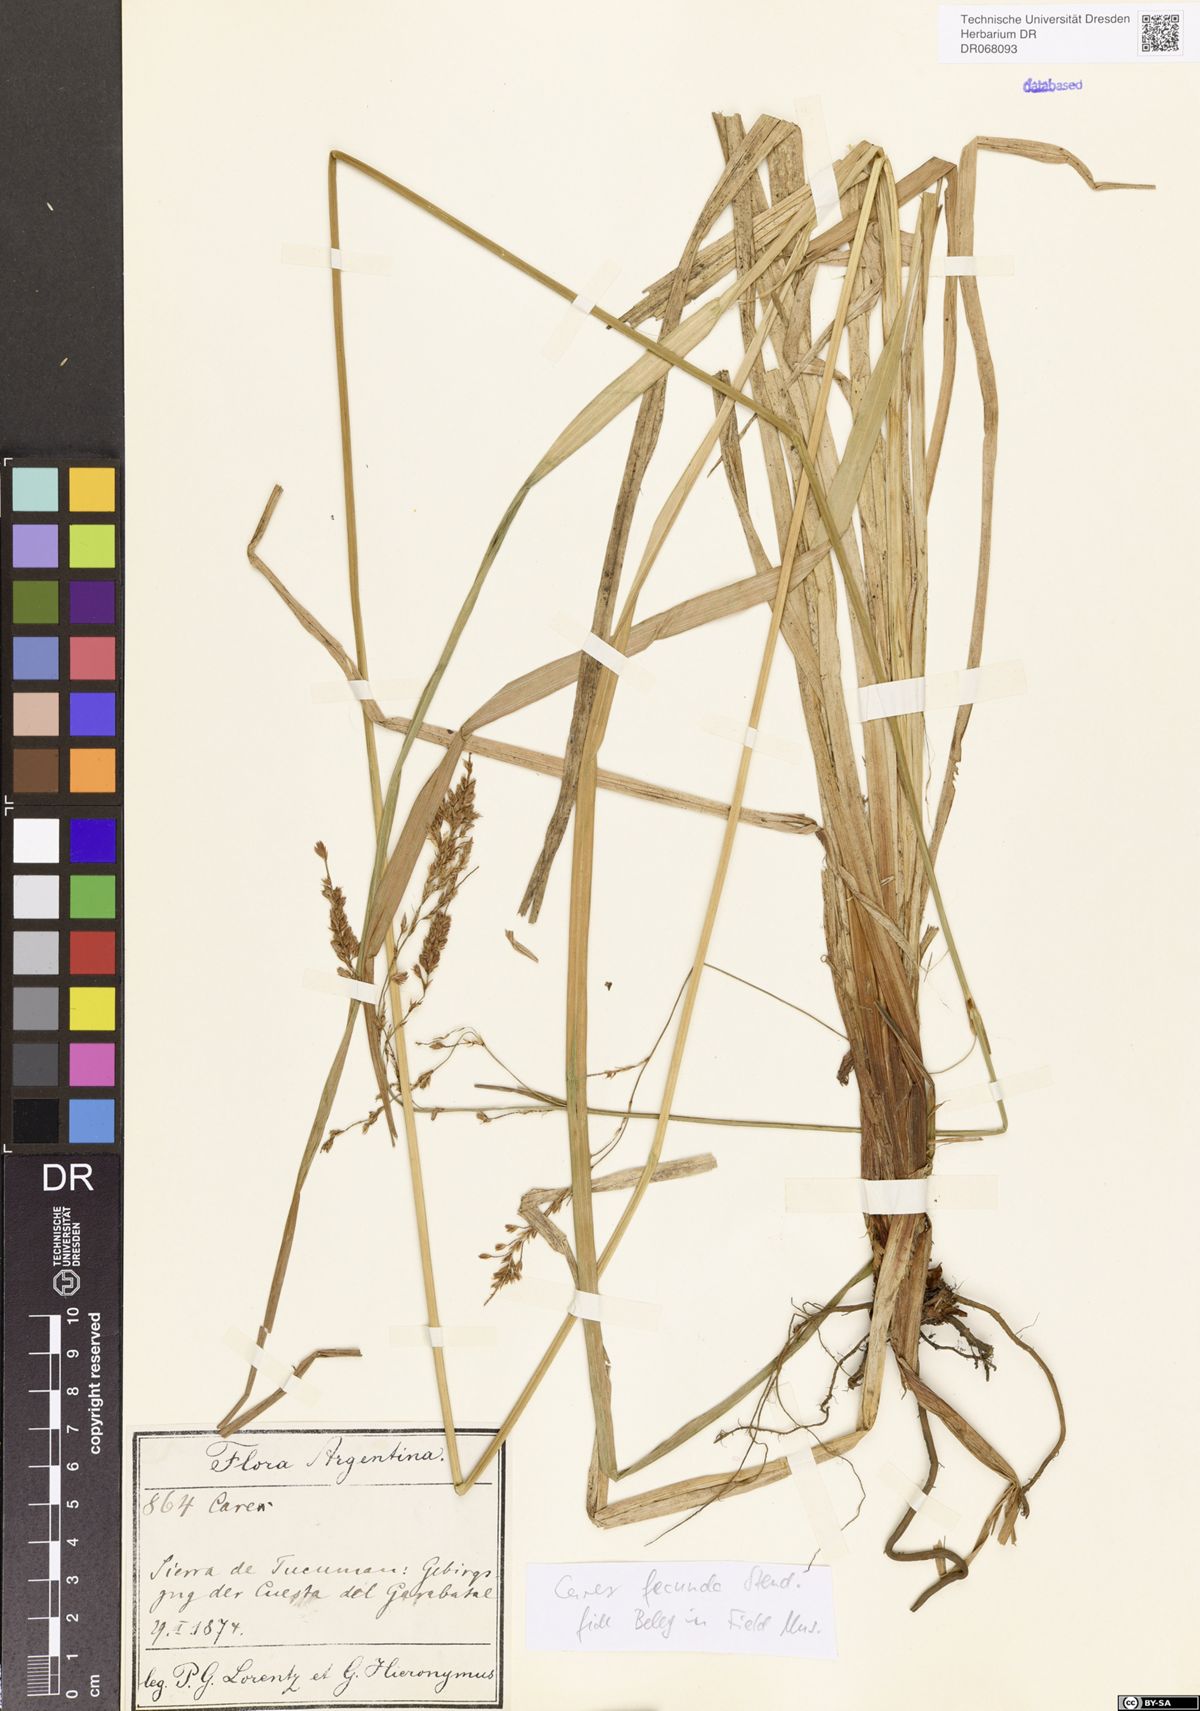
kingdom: Plantae
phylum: Tracheophyta
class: Liliopsida
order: Poales
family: Cyperaceae
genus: Carex
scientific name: Carex fecunda
